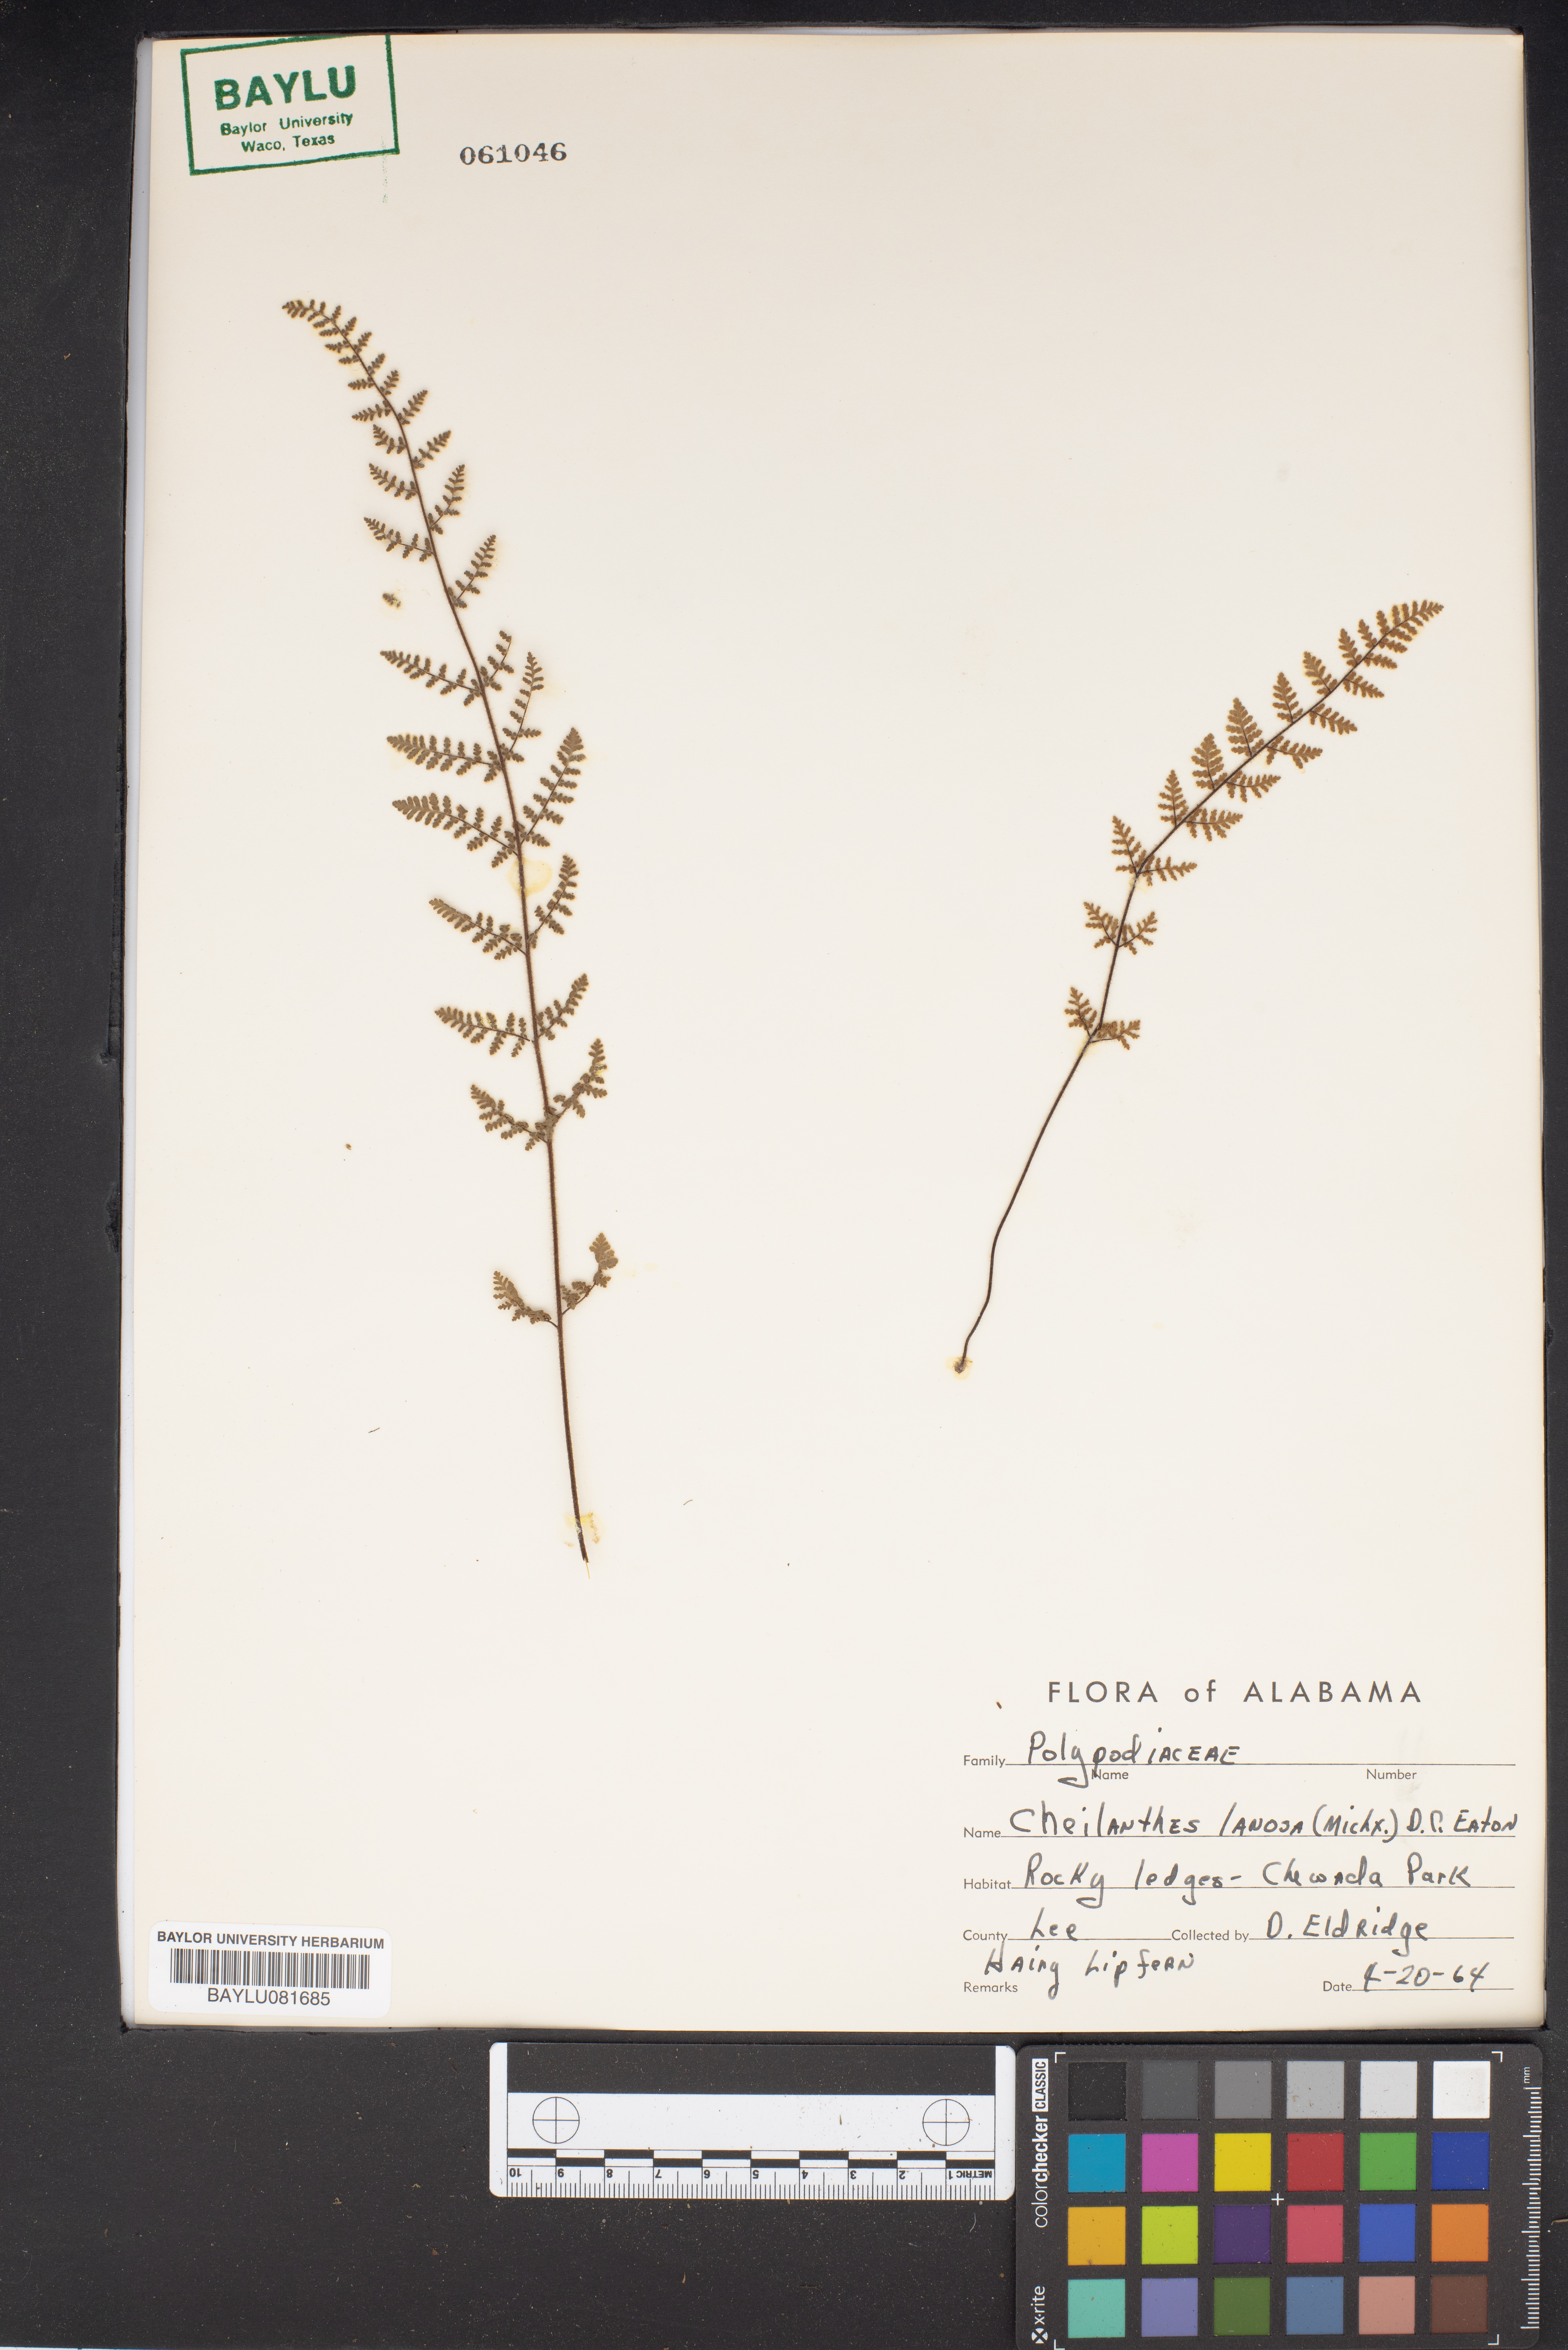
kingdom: Plantae
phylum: Tracheophyta
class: Polypodiopsida
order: Polypodiales
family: Pteridaceae
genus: Myriopteris
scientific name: Myriopteris lanosa
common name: Hairy lip fern
